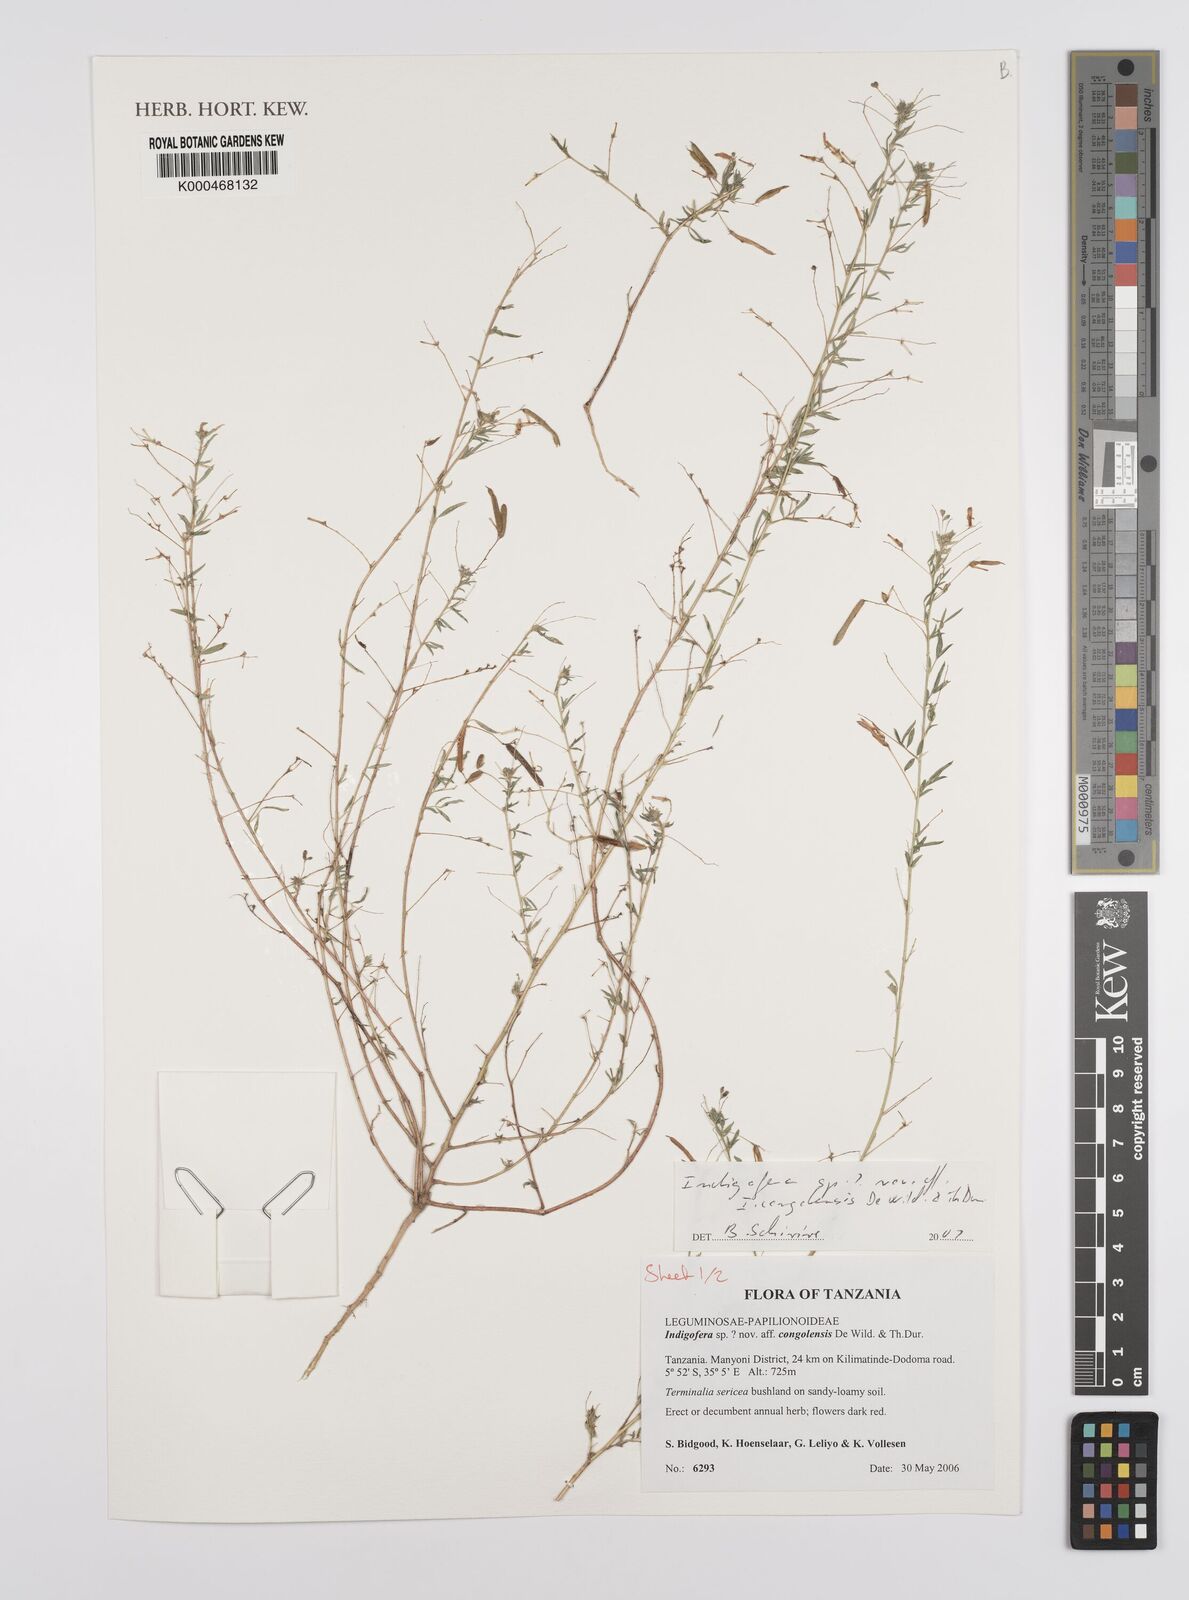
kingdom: Plantae
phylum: Tracheophyta
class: Magnoliopsida
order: Fabales
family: Fabaceae
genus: Indigofera
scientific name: Indigofera
